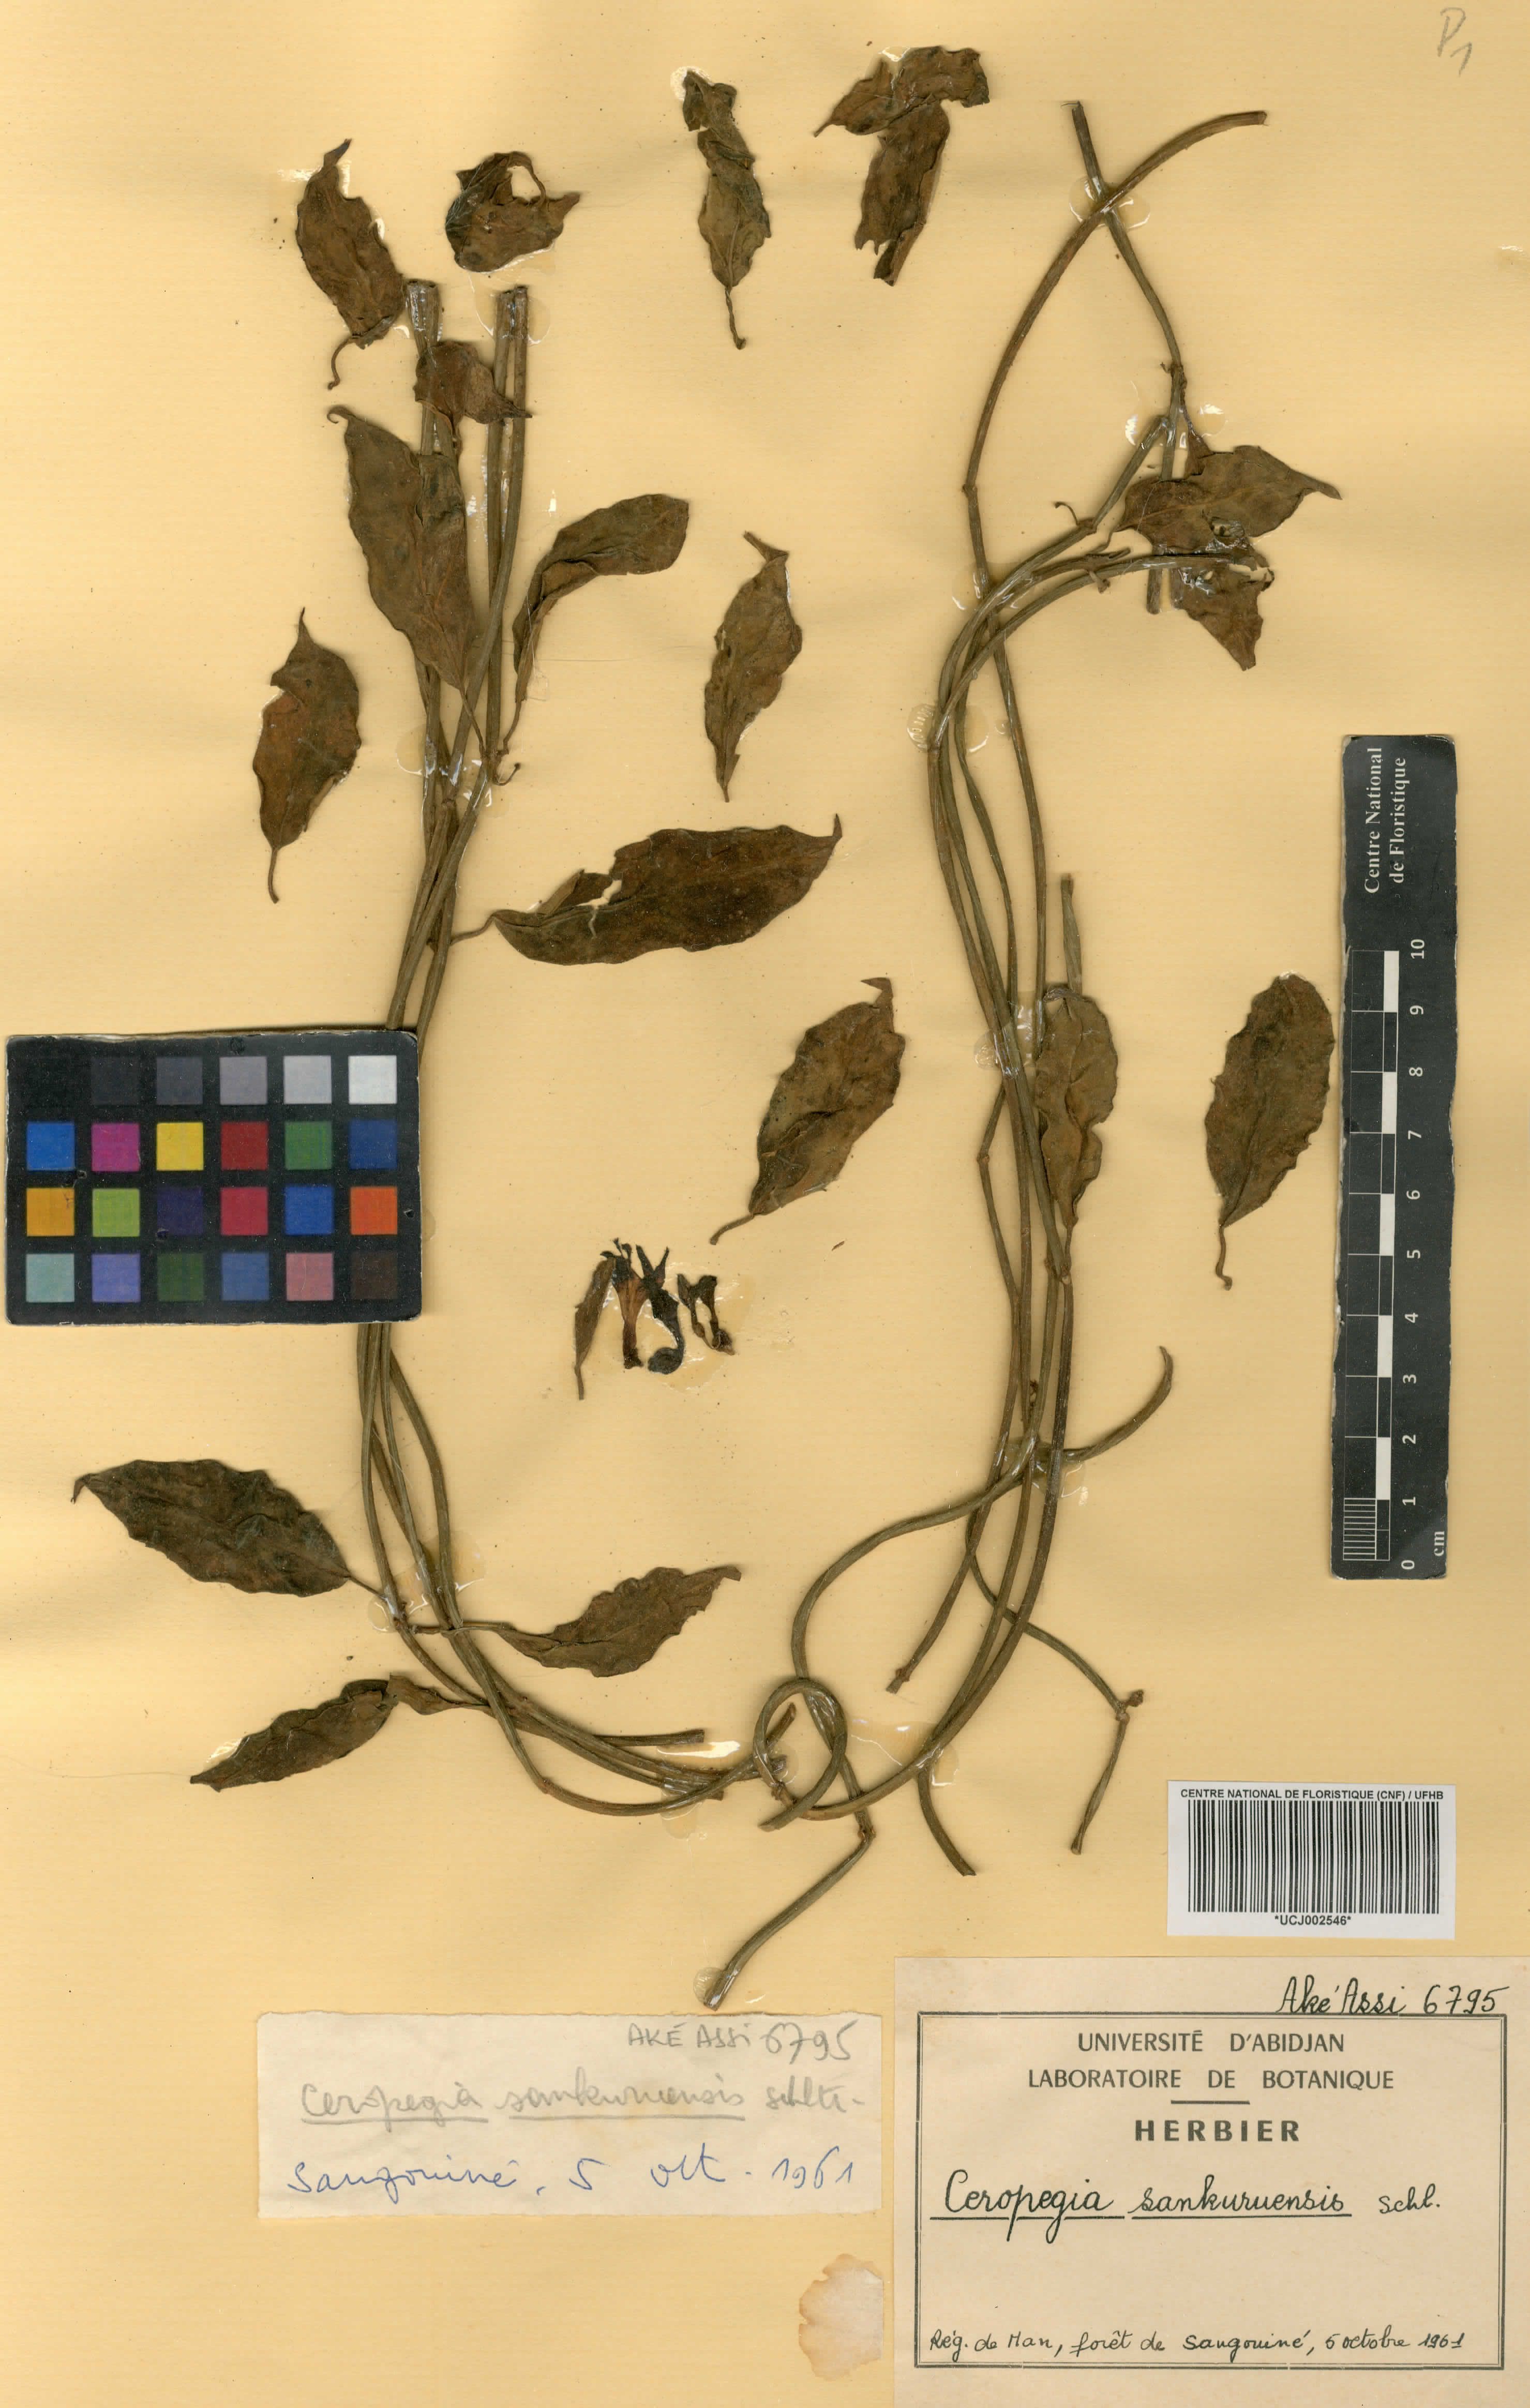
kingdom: Plantae
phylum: Tracheophyta
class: Magnoliopsida
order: Gentianales
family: Apocynaceae
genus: Ceropegia
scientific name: Ceropegia sankuruensis
